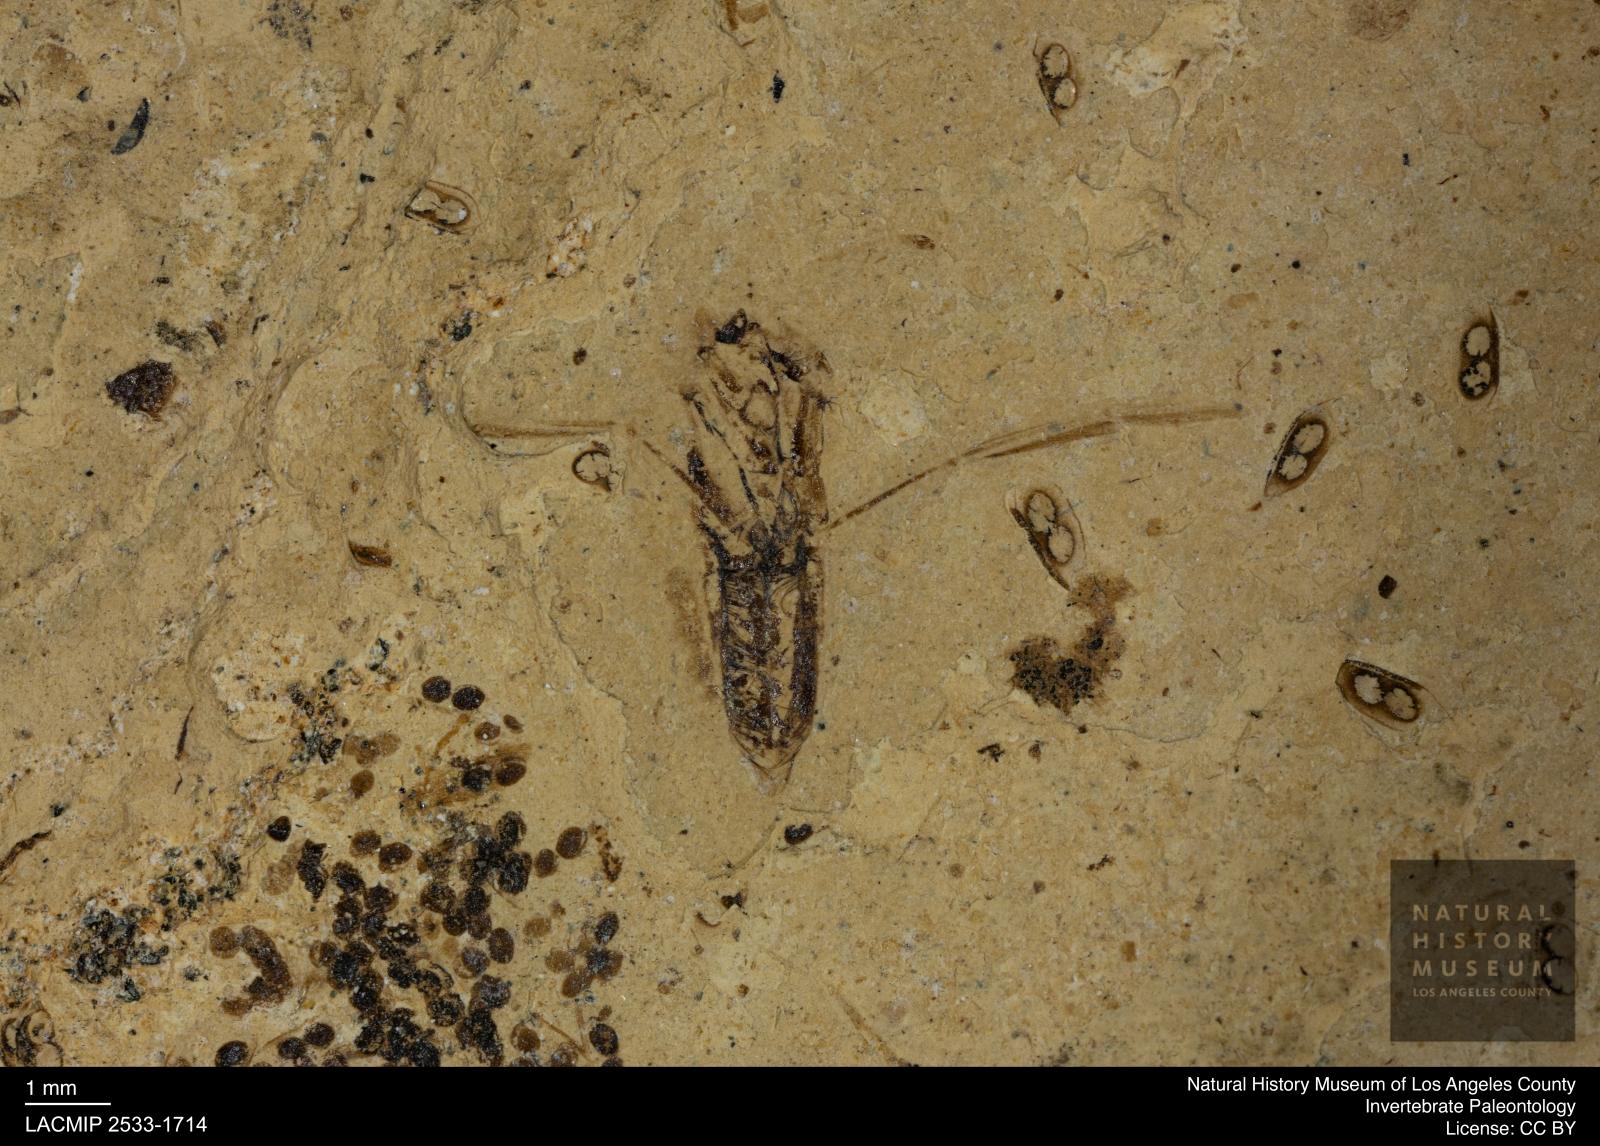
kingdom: Animalia
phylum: Arthropoda
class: Insecta
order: Hemiptera
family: Notonectidae
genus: Notonecta
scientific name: Notonecta
